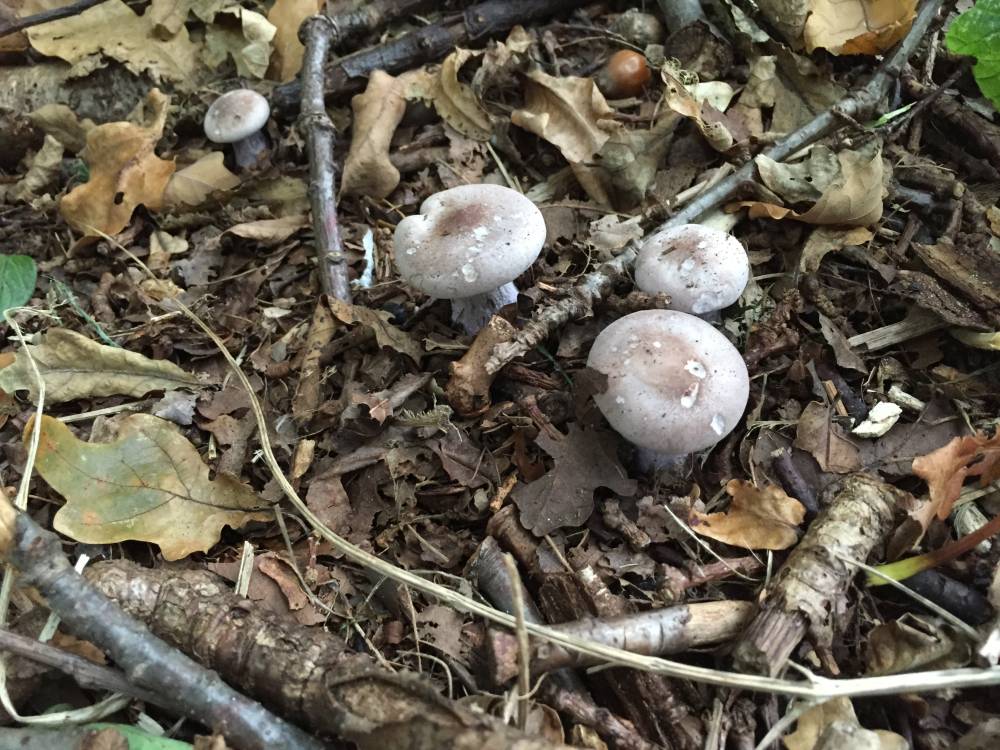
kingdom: Fungi
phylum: Basidiomycota
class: Agaricomycetes
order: Agaricales
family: Tricholomataceae
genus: Lepista
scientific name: Lepista nuda
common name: violet hekseringshat
